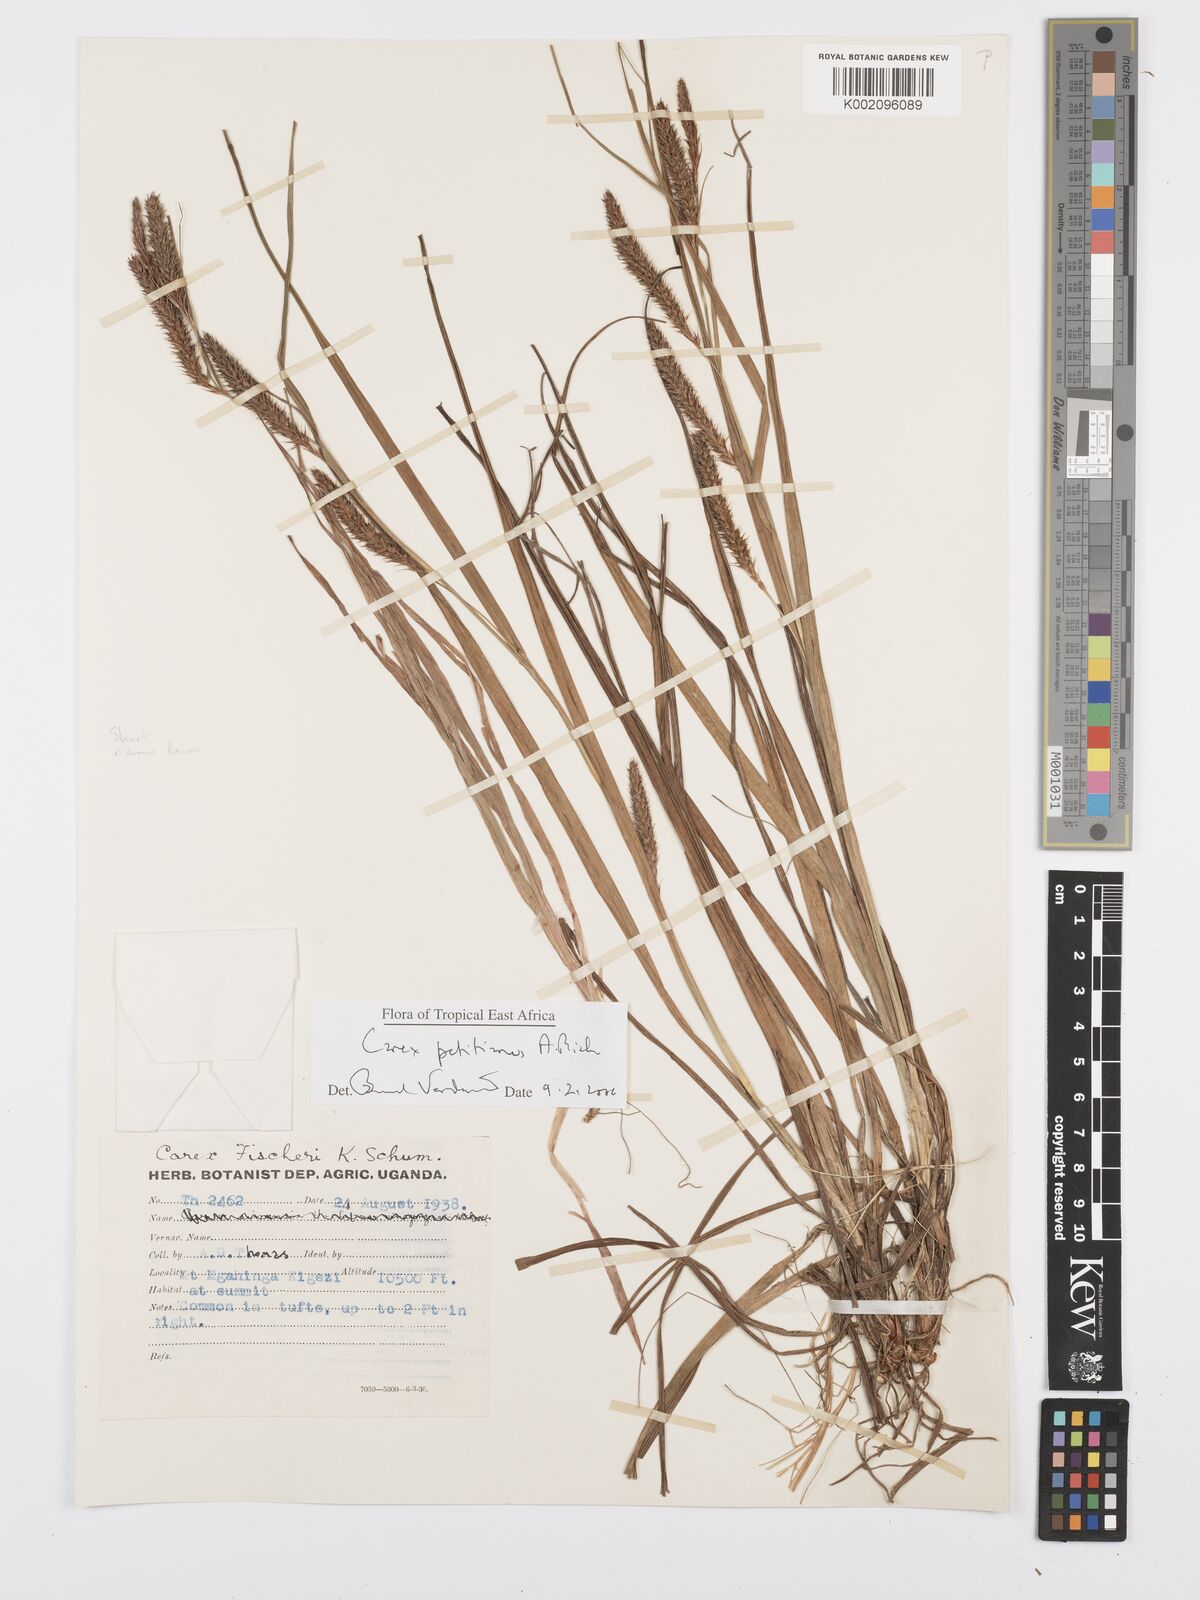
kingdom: Plantae
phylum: Tracheophyta
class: Liliopsida
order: Poales
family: Cyperaceae
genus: Carex
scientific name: Carex fischeri
